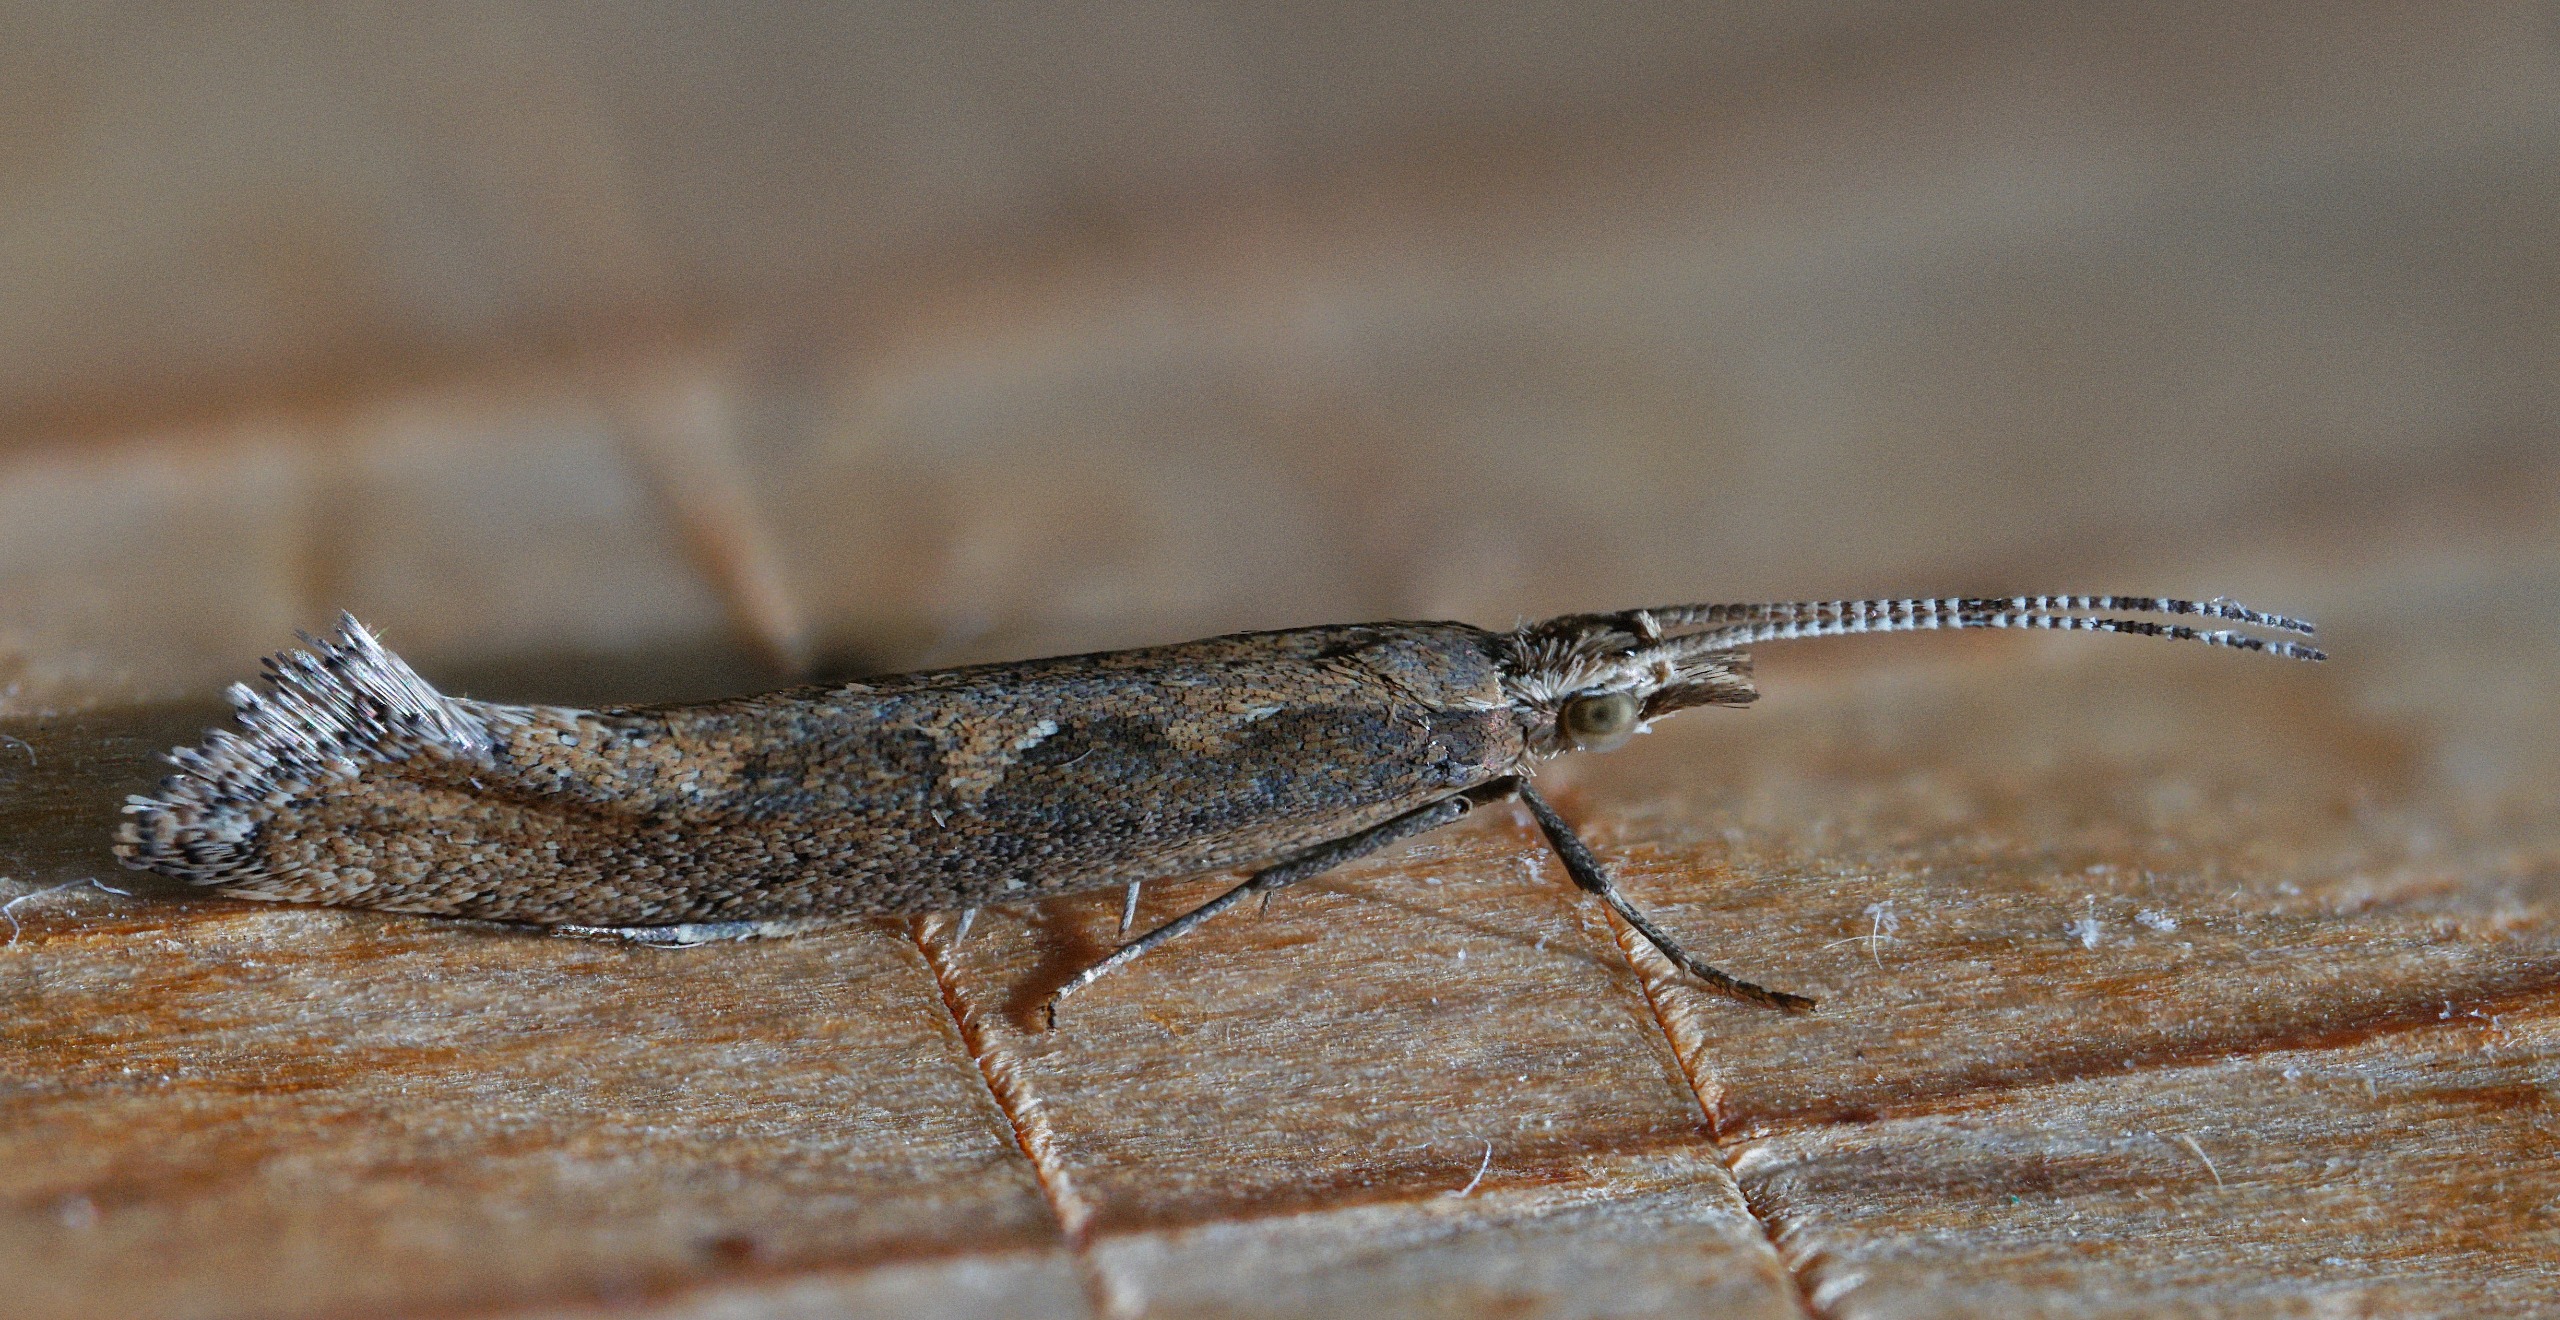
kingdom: Animalia
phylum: Arthropoda
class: Insecta
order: Lepidoptera
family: Plutellidae
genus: Plutella
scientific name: Plutella xylostella
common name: Kålmøl
